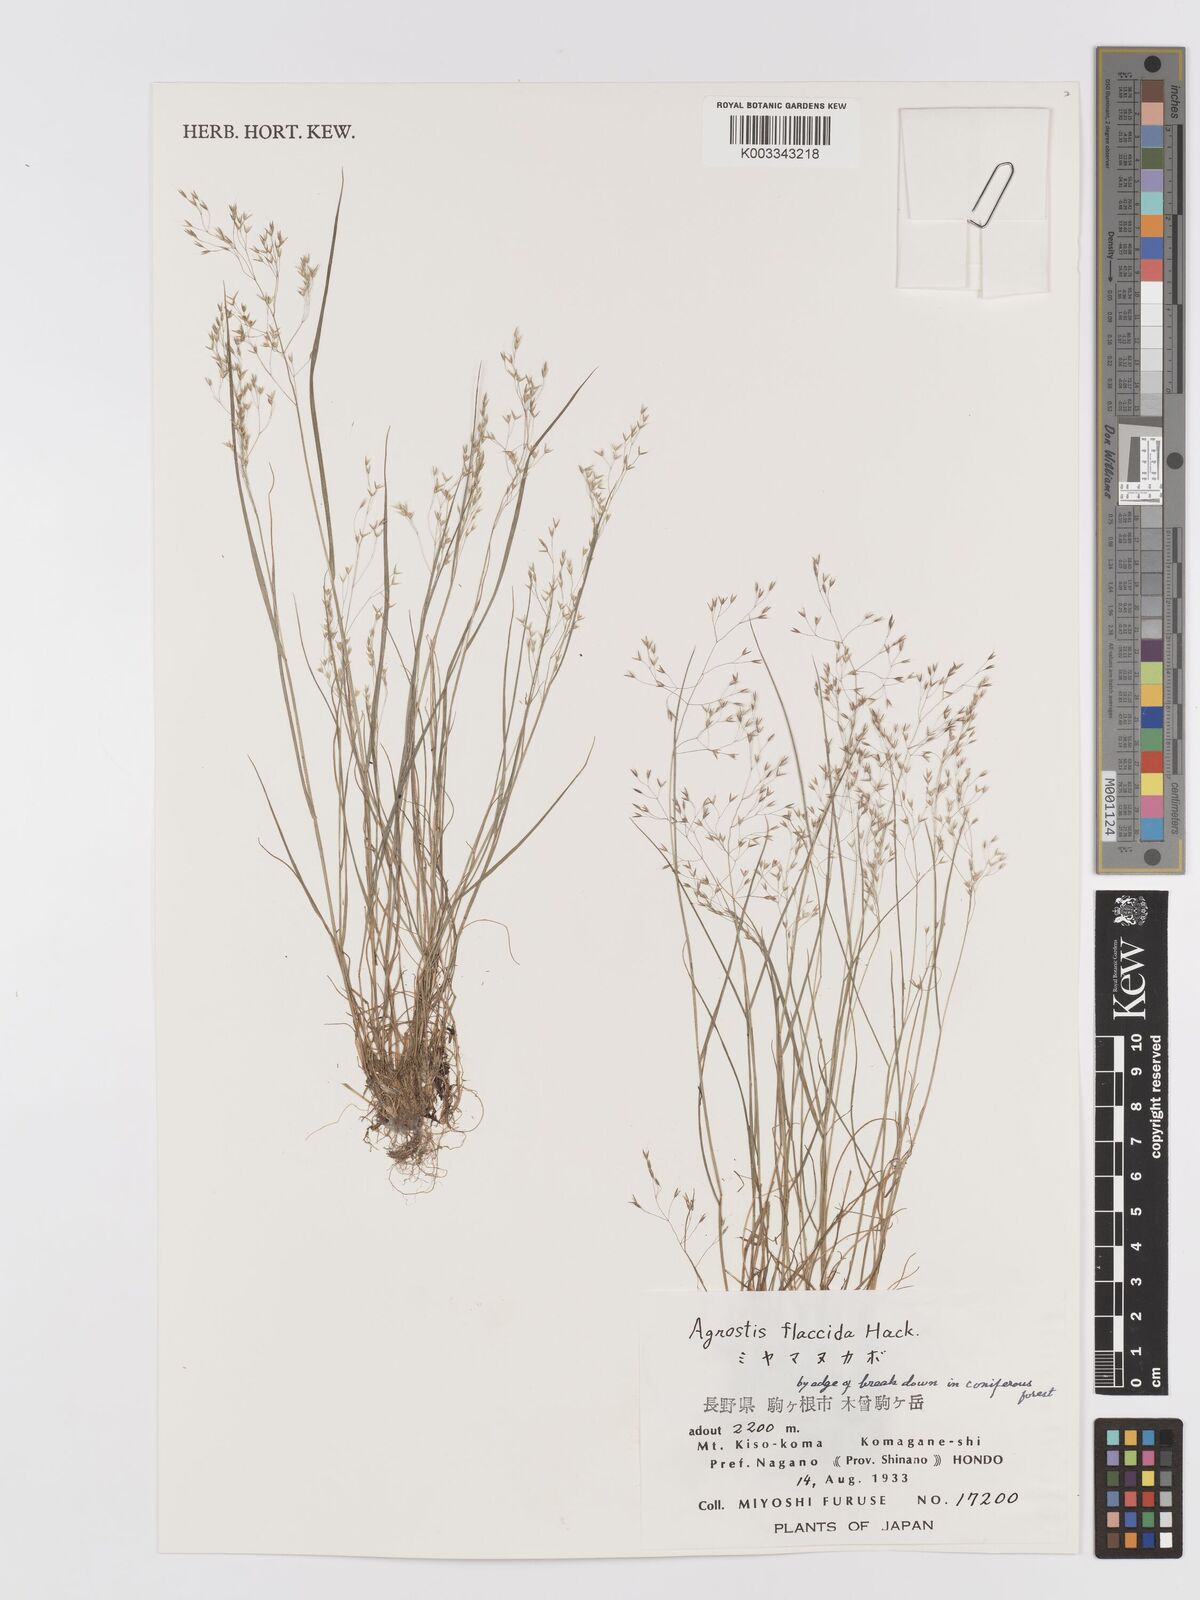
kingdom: Plantae
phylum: Tracheophyta
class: Liliopsida
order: Poales
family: Poaceae
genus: Agrostis
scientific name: Agrostis flaccida
